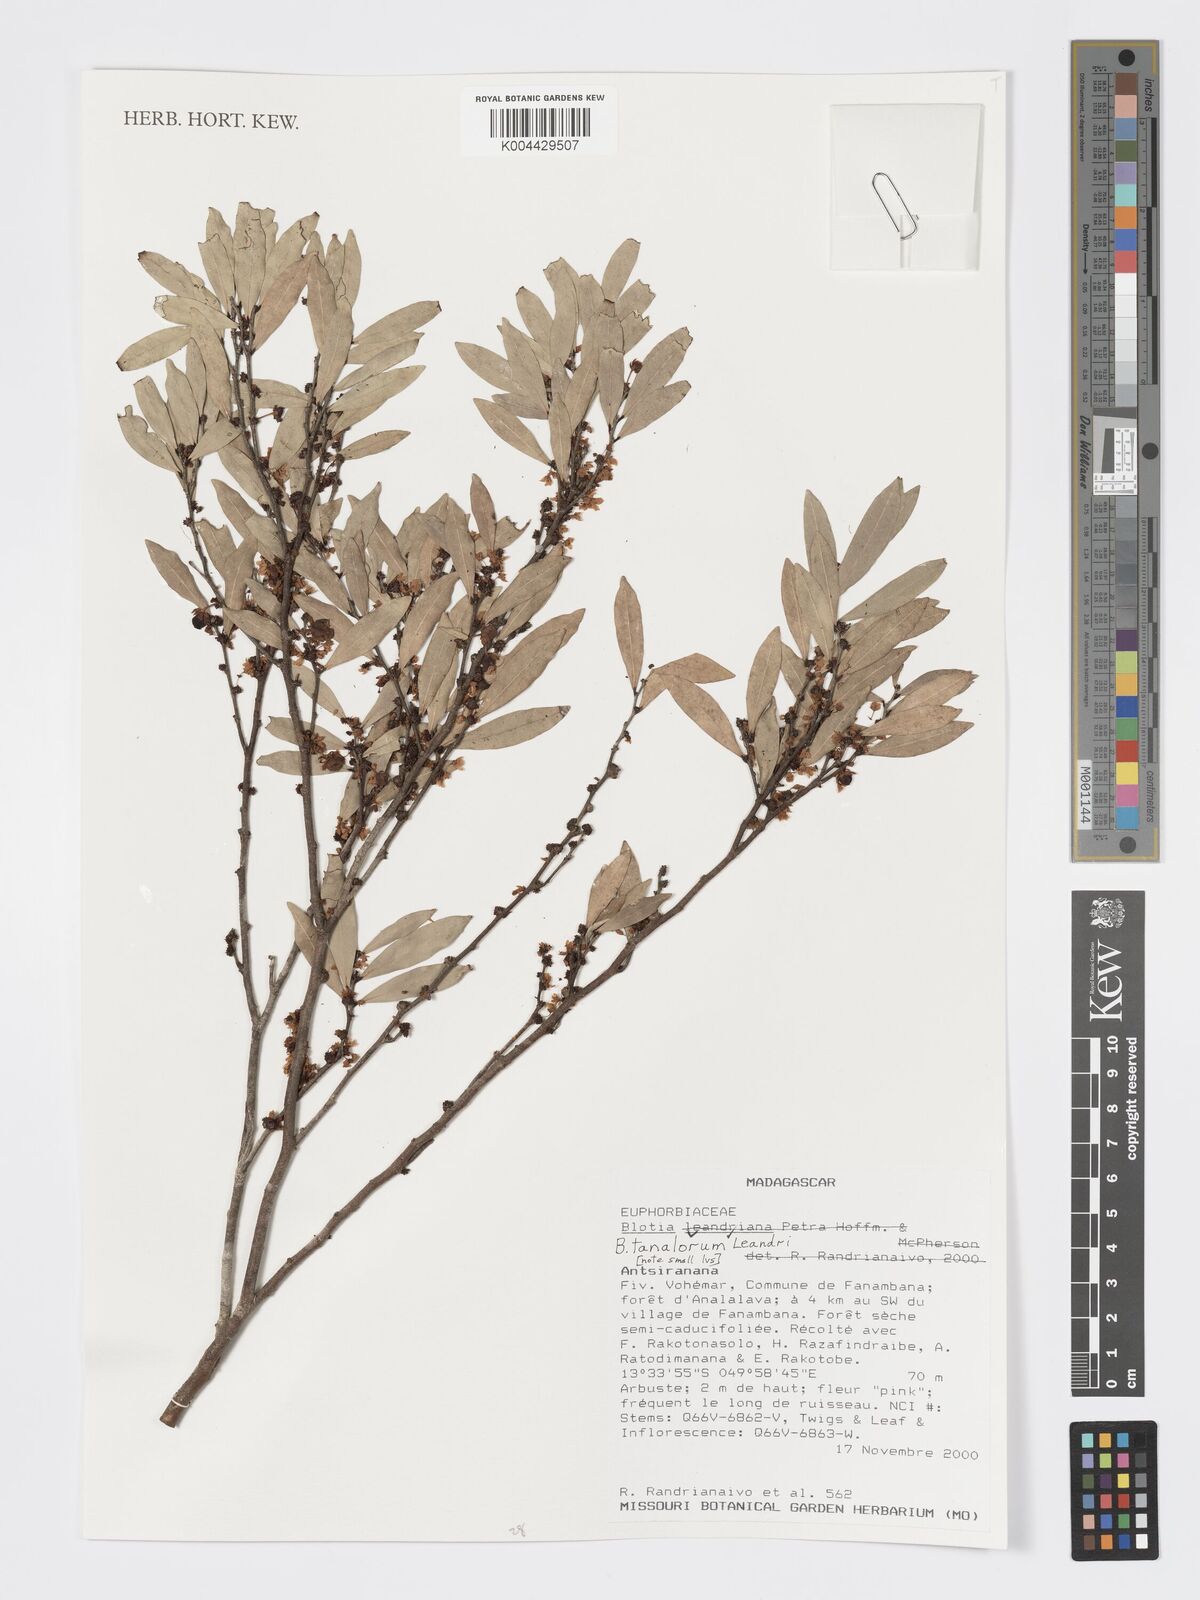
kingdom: Plantae
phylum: Tracheophyta
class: Magnoliopsida
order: Malpighiales
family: Phyllanthaceae
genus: Wielandia
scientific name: Wielandia tanalorum
